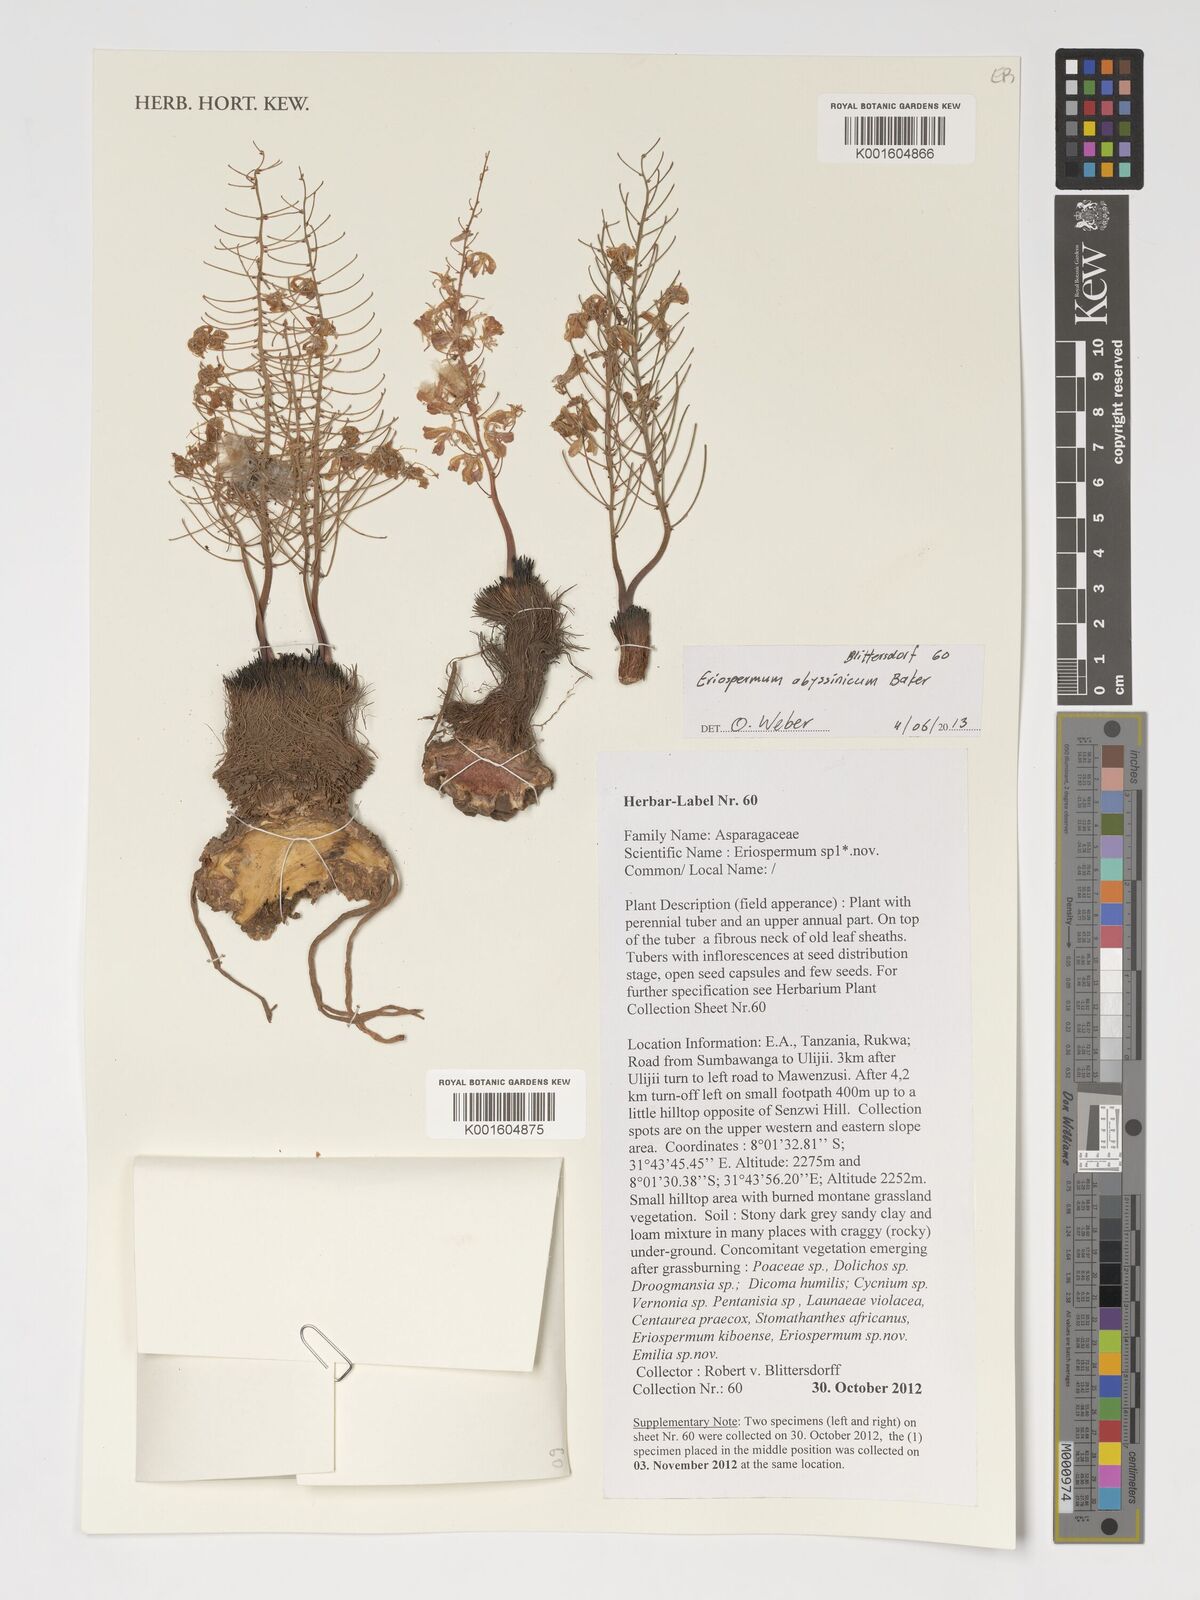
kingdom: Plantae
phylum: Tracheophyta
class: Liliopsida
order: Asparagales
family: Asparagaceae
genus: Eriospermum
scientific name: Eriospermum abyssinicum
